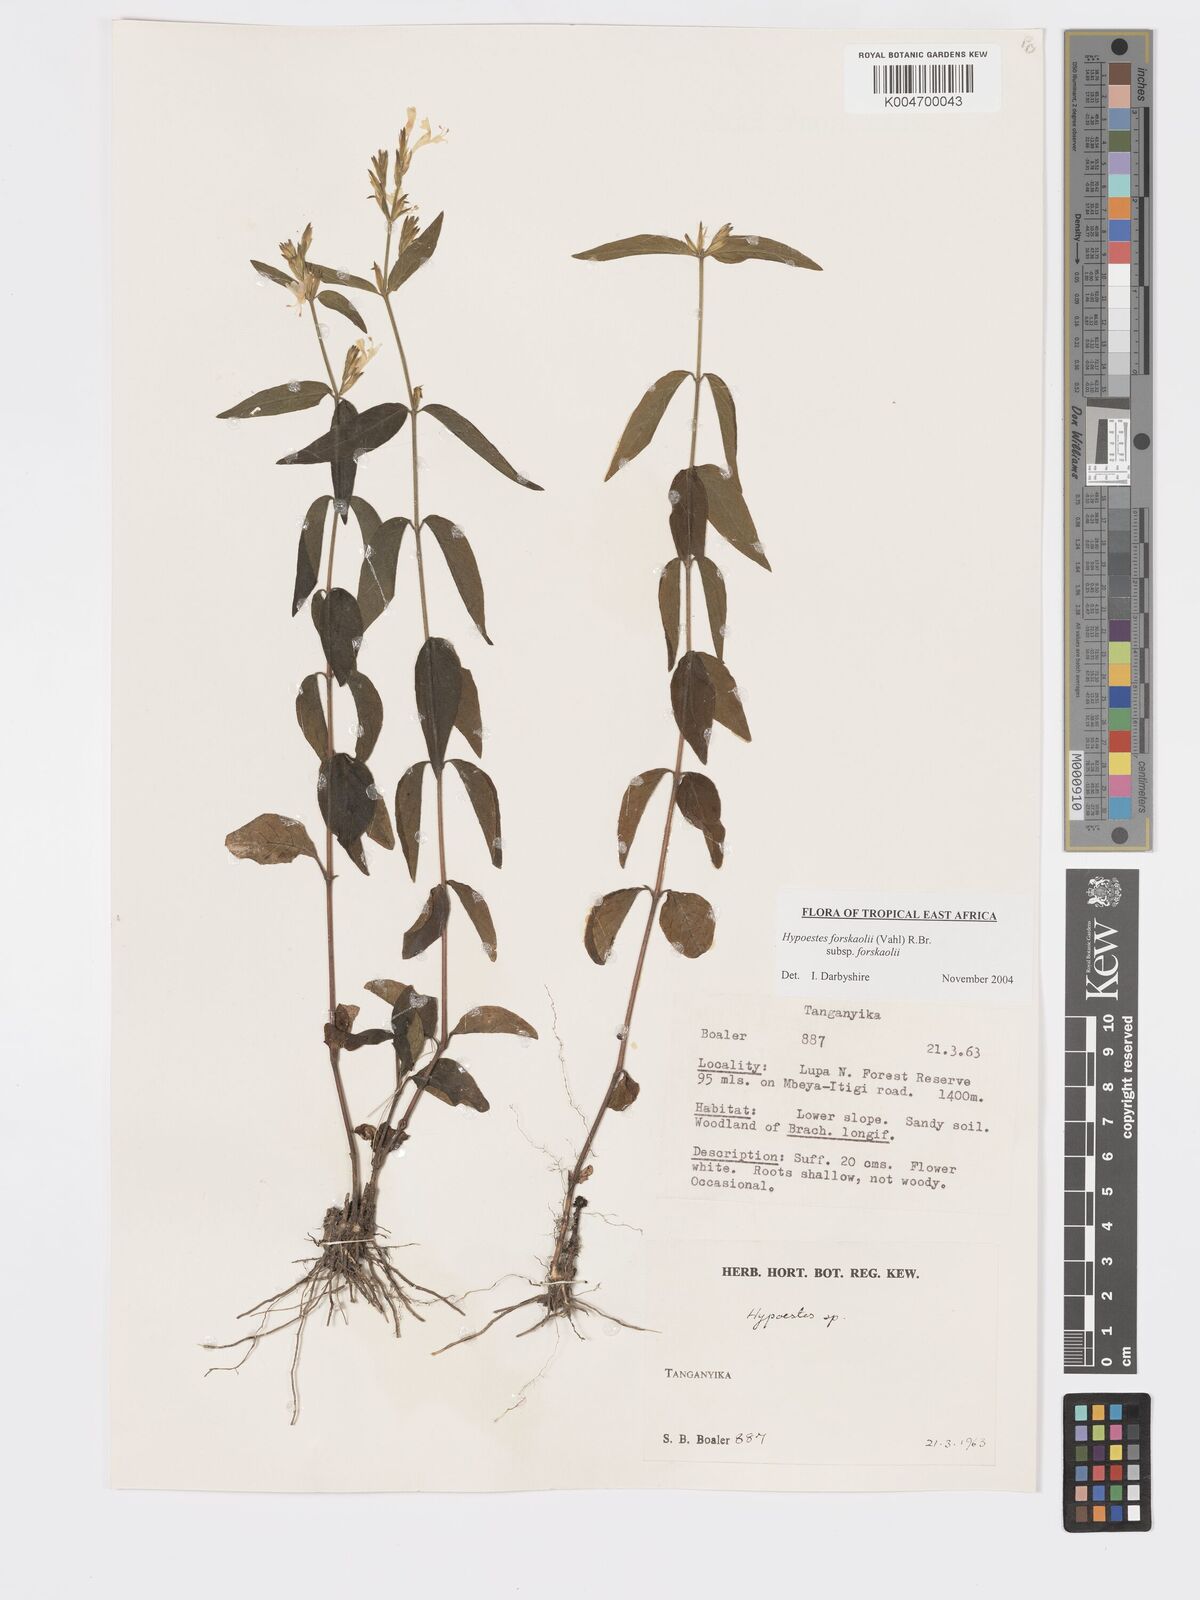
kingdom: Plantae
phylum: Tracheophyta
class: Magnoliopsida
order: Lamiales
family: Acanthaceae
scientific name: Acanthaceae
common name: Acanthaceae
